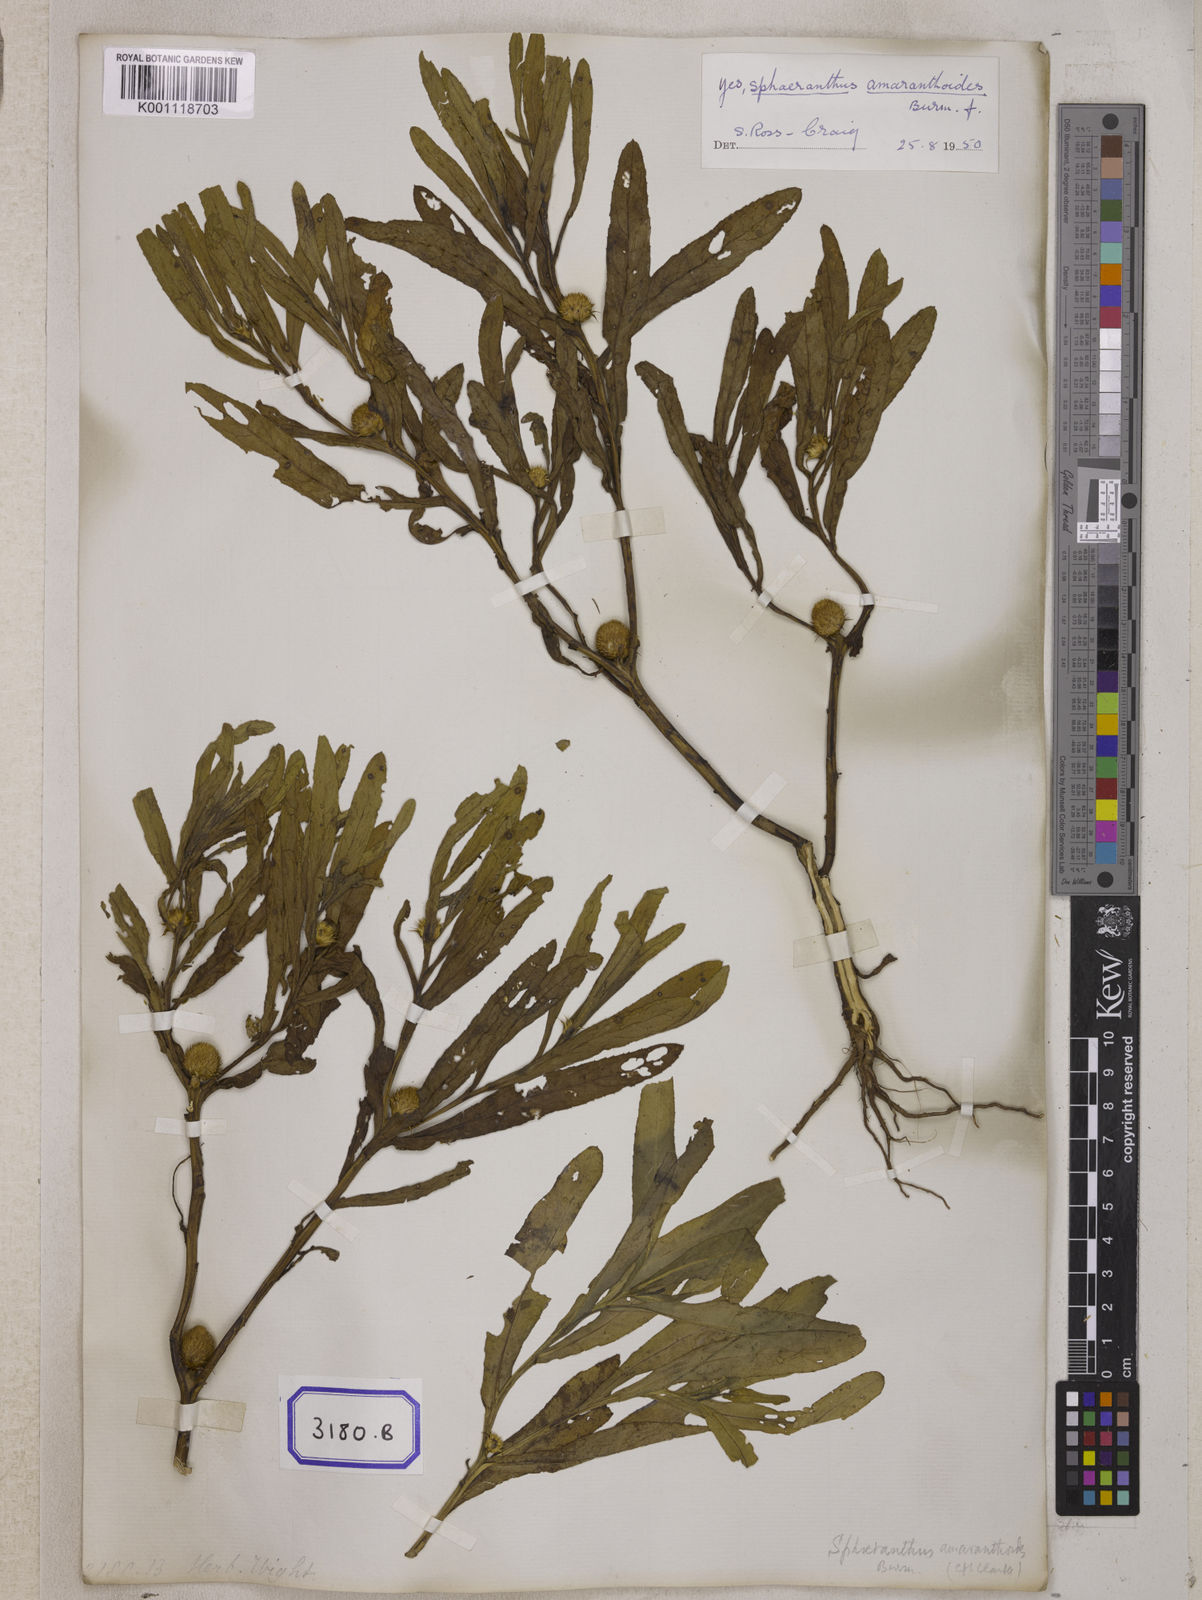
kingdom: Plantae
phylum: Tracheophyta
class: Magnoliopsida
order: Asterales
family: Asteraceae
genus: Sphaeranthus
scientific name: Sphaeranthus amaranthoides
